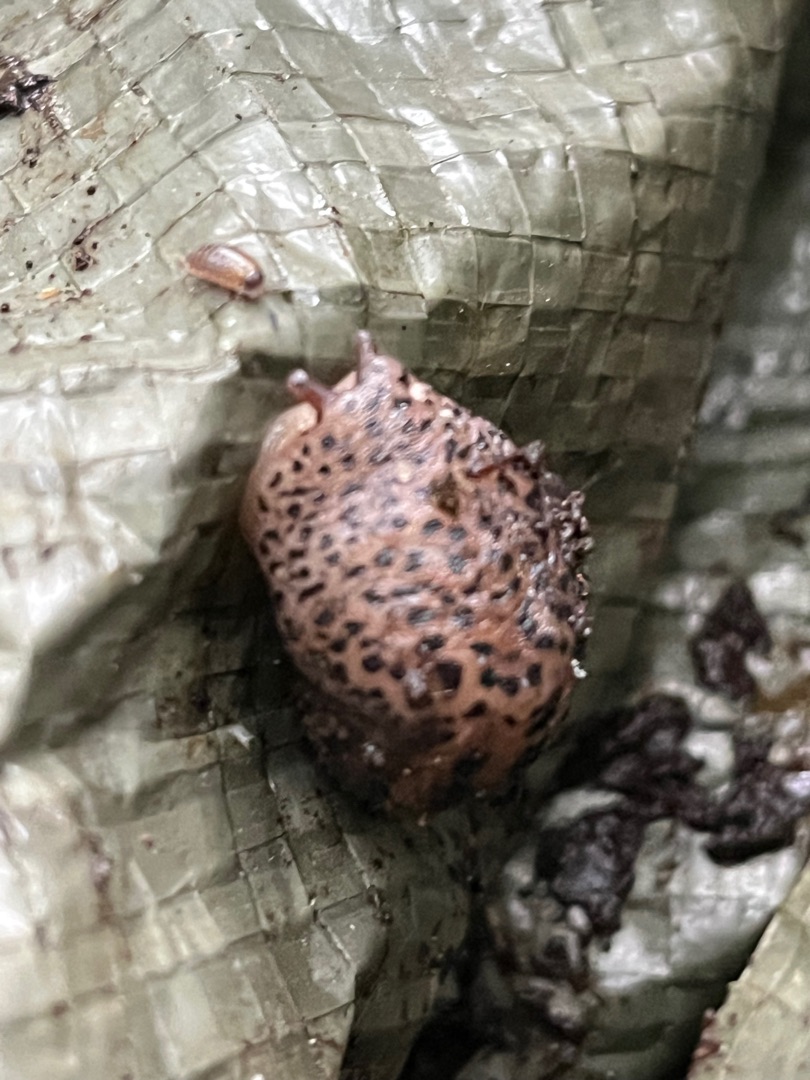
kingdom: Animalia
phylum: Mollusca
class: Gastropoda
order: Stylommatophora
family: Limacidae
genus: Limax
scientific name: Limax maximus
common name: Pantersnegl
